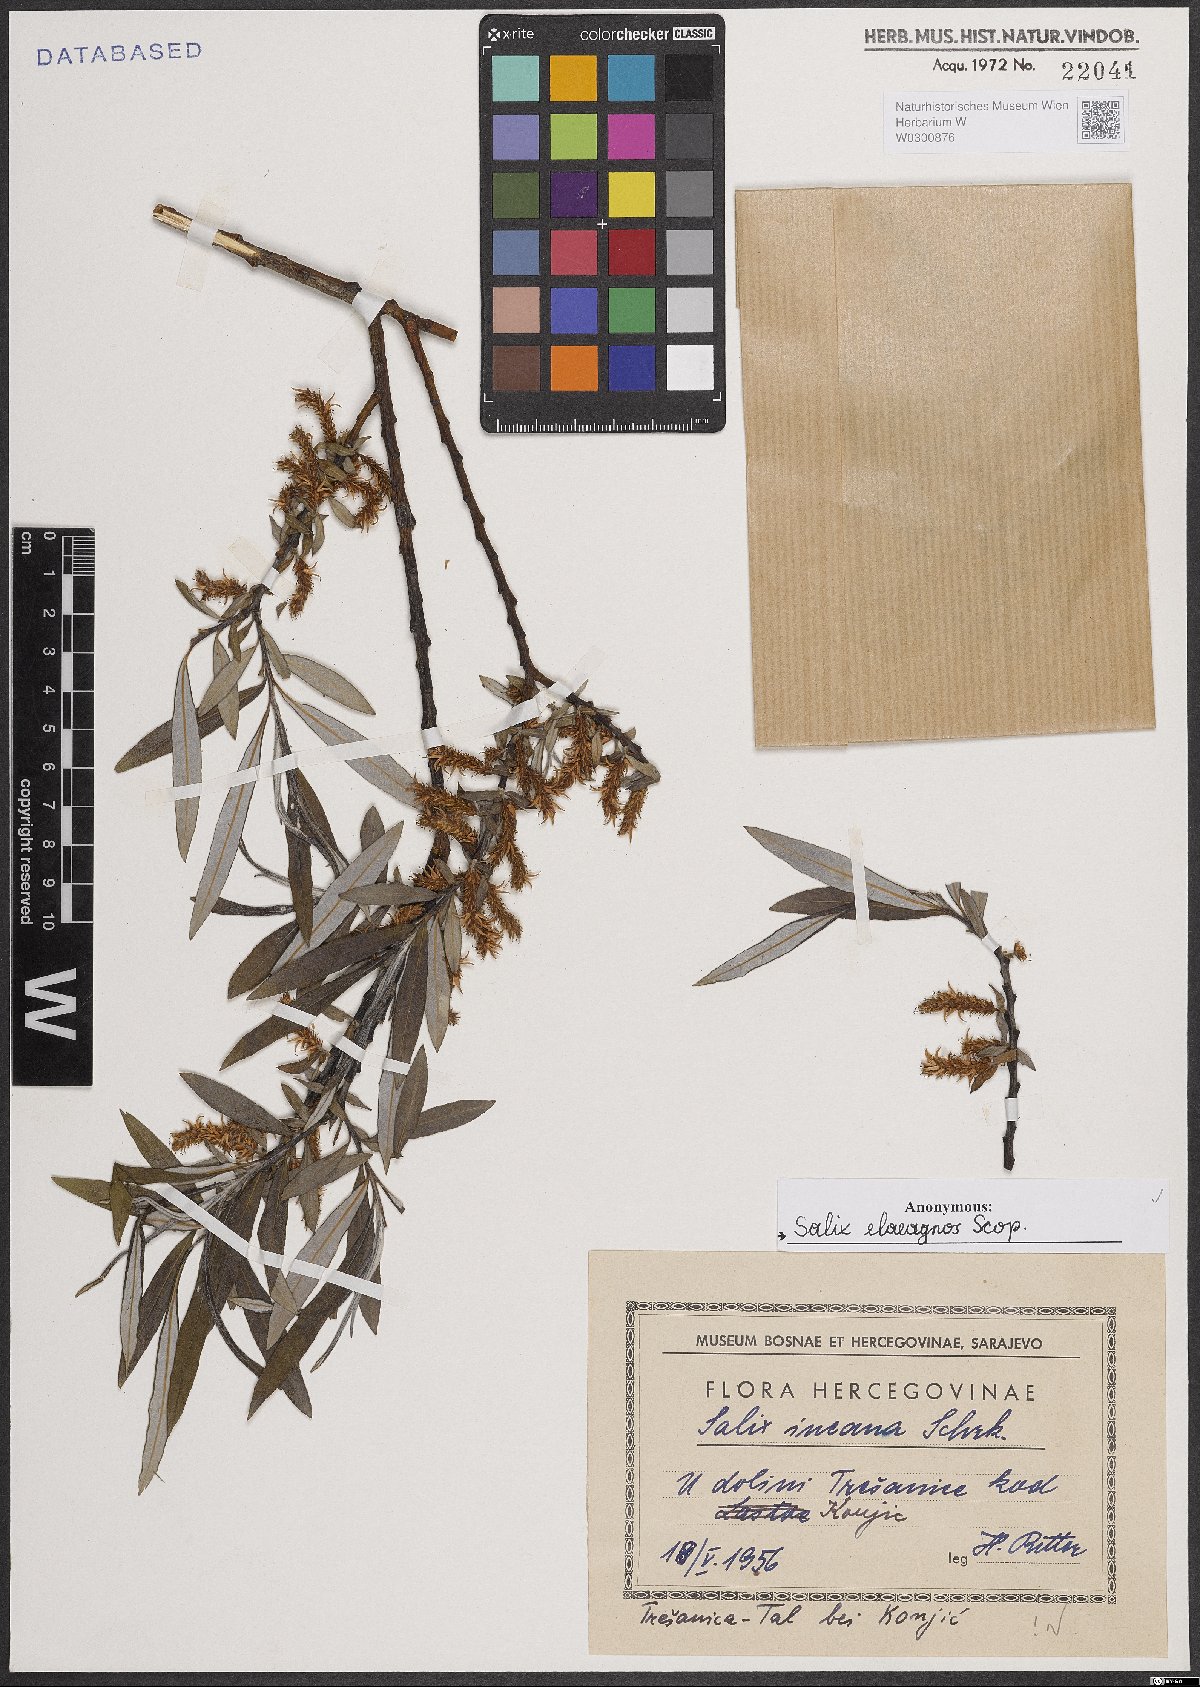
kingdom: Plantae
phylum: Tracheophyta
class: Magnoliopsida
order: Malpighiales
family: Salicaceae
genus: Salix
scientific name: Salix eleagnos
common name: Elaeagnus willow
